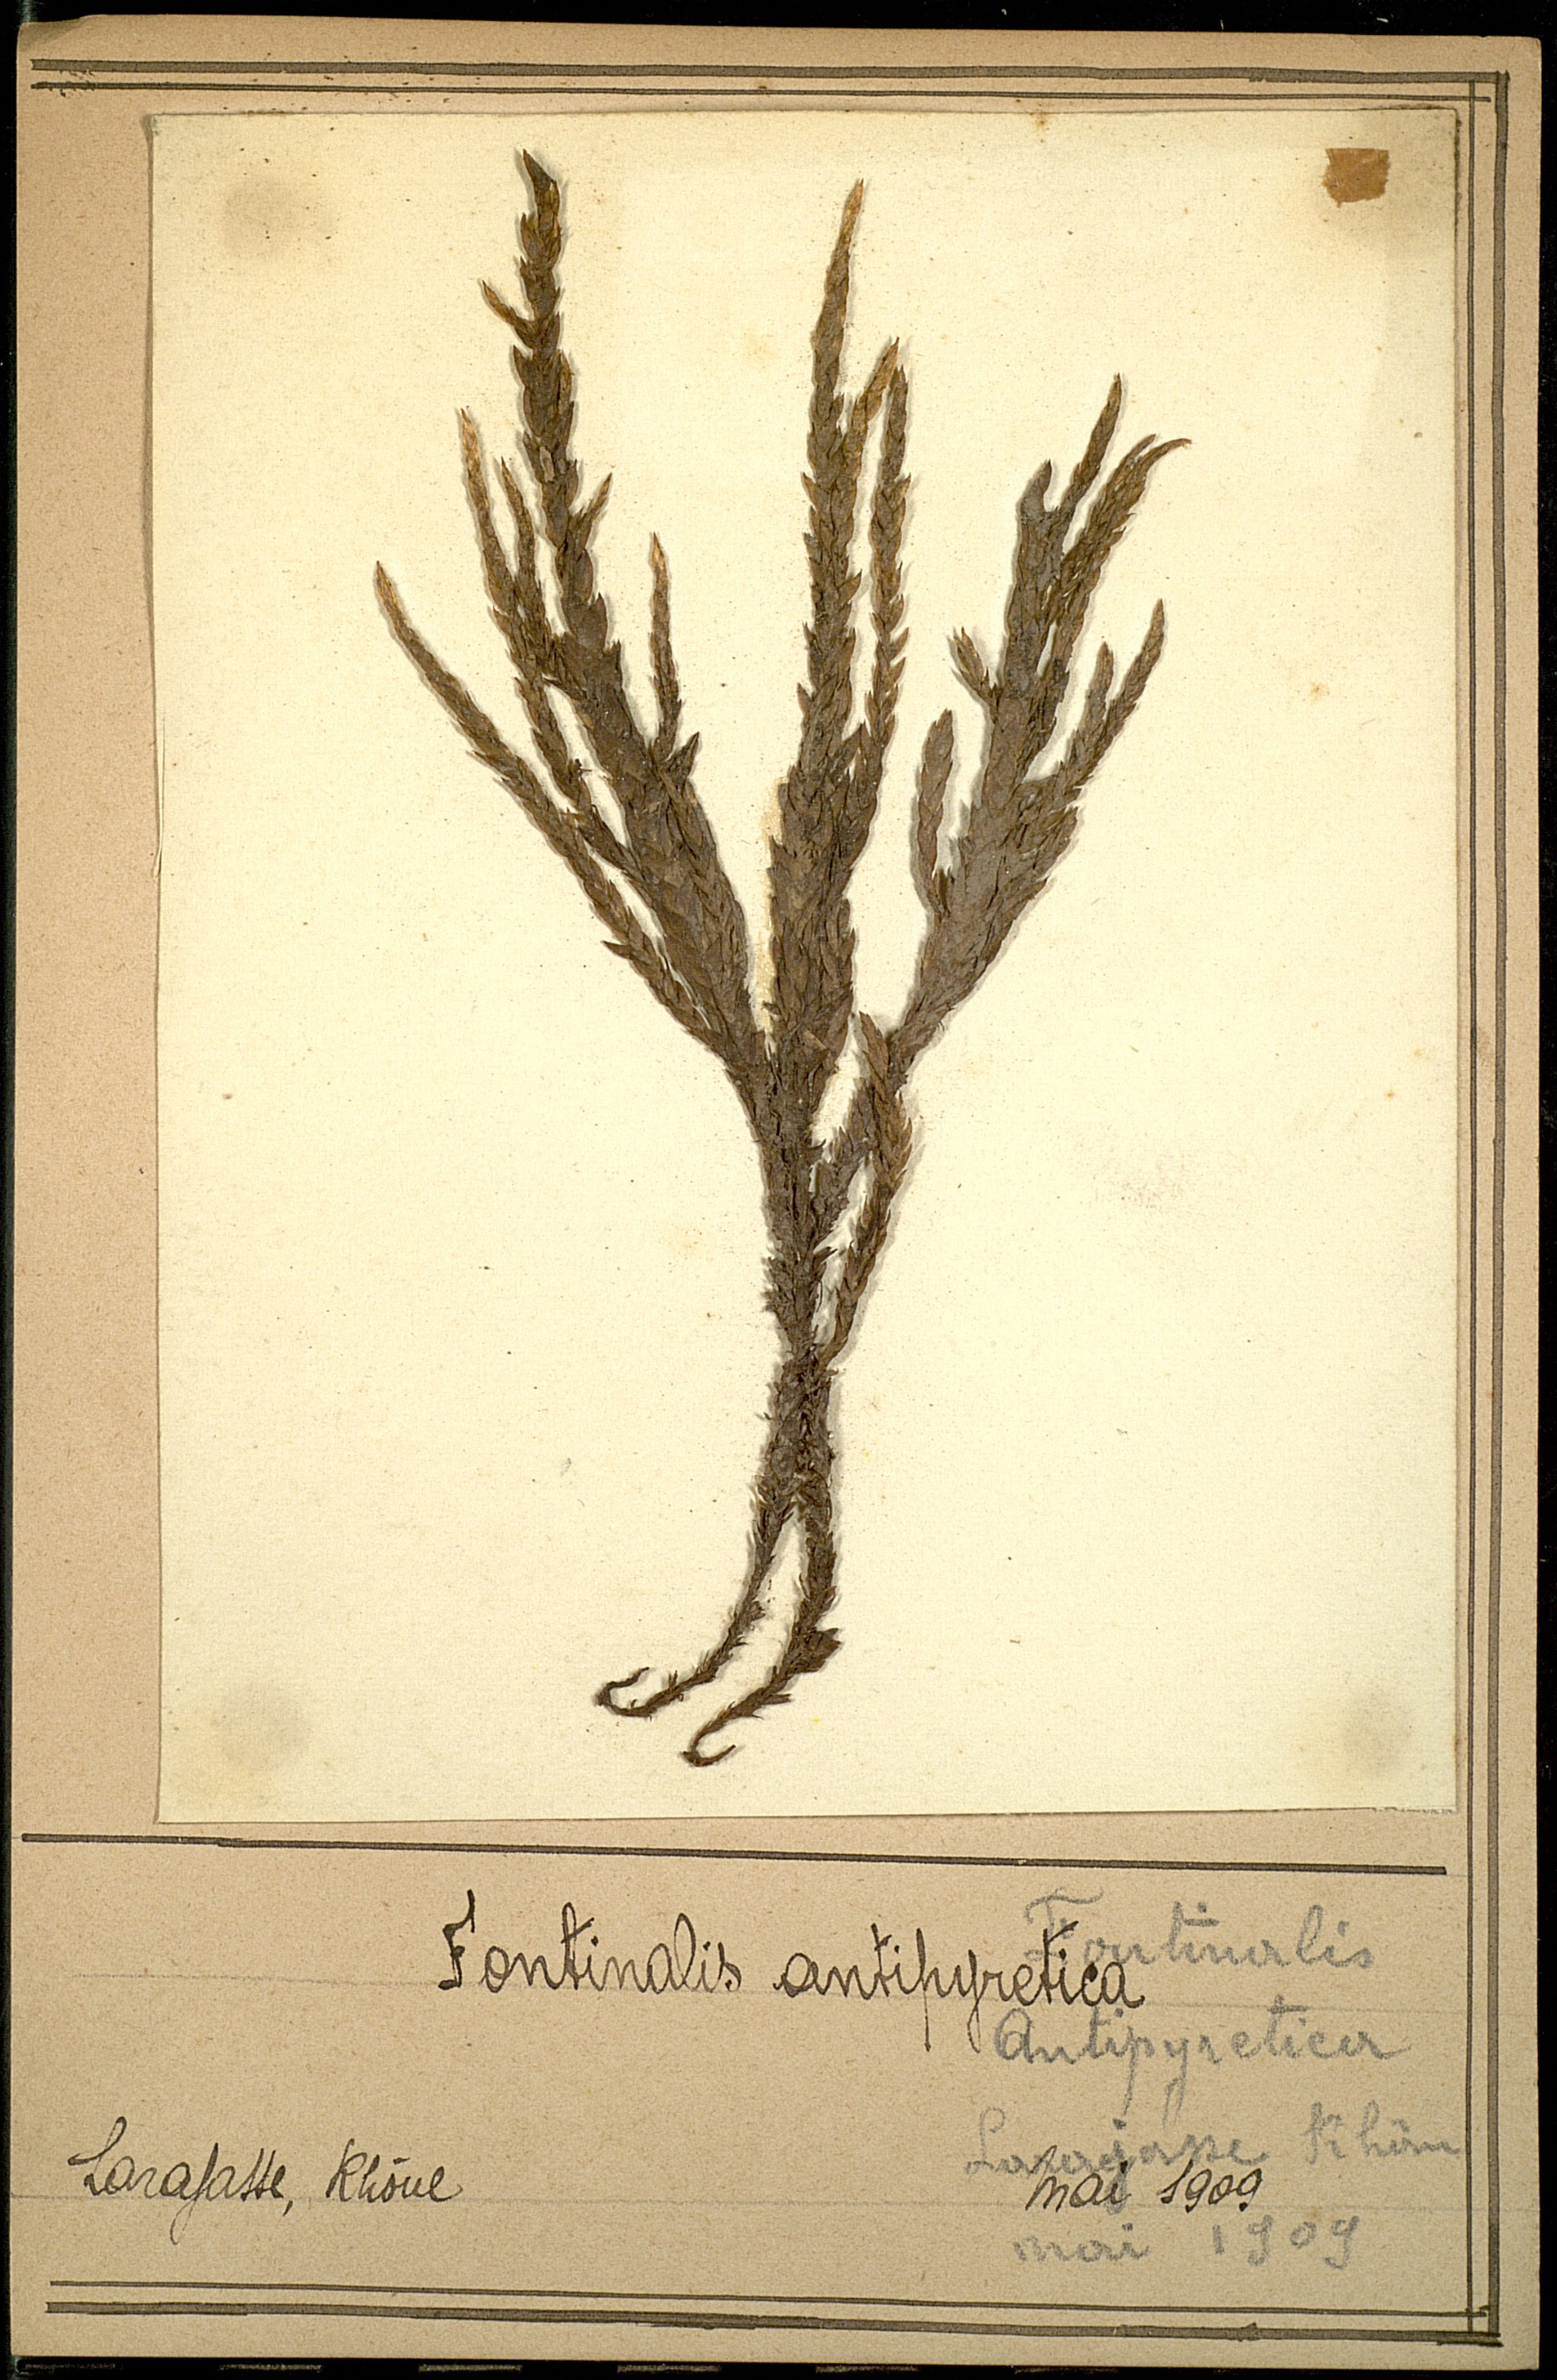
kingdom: Plantae
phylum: Bryophyta
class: Bryopsida
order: Hypnales
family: Fontinalaceae
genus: Fontinalis
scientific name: Fontinalis antipyretica
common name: Greater water-moss
